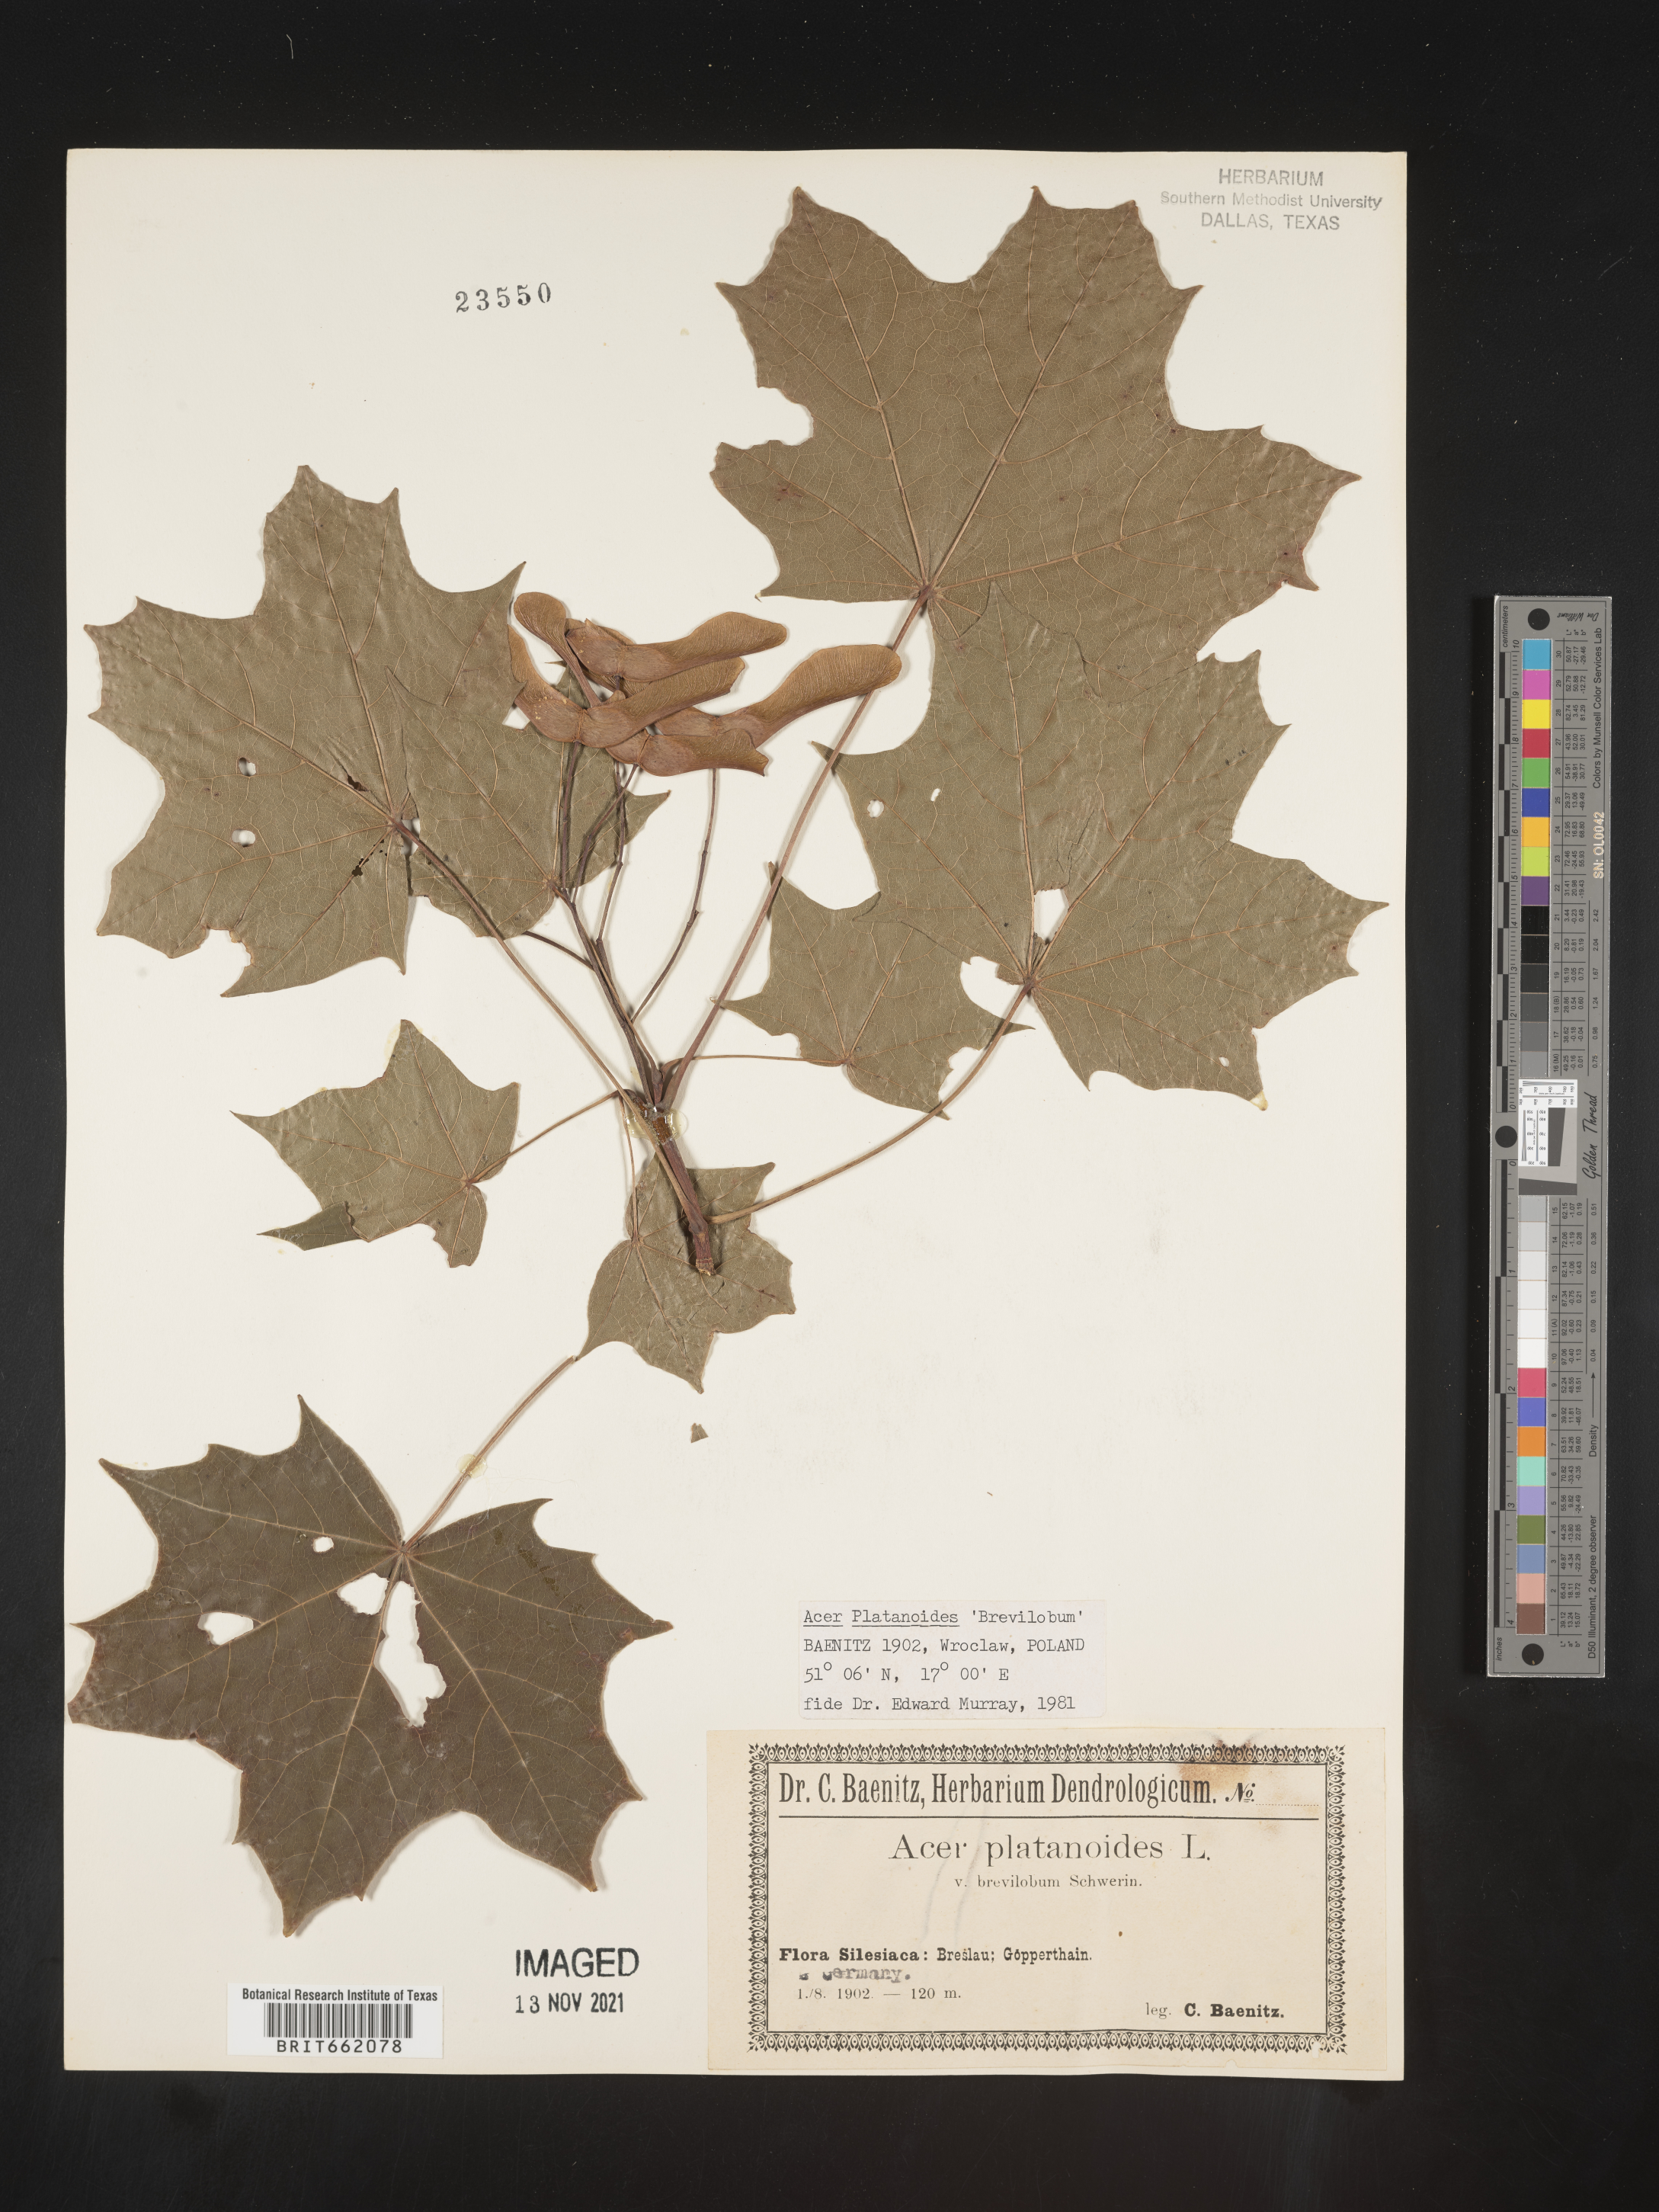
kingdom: Plantae
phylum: Tracheophyta
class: Magnoliopsida
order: Sapindales
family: Sapindaceae
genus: Acer
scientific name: Acer
